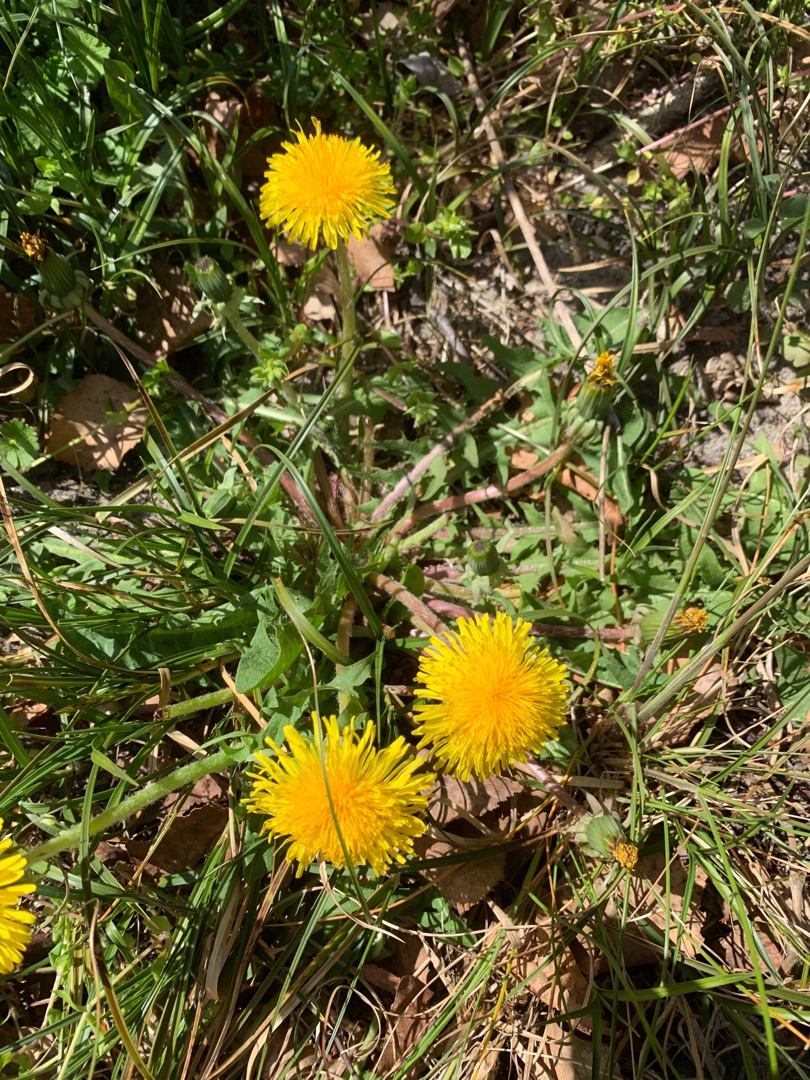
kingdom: Plantae
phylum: Tracheophyta
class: Magnoliopsida
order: Asterales
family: Asteraceae
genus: Taraxacum
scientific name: Taraxacum
